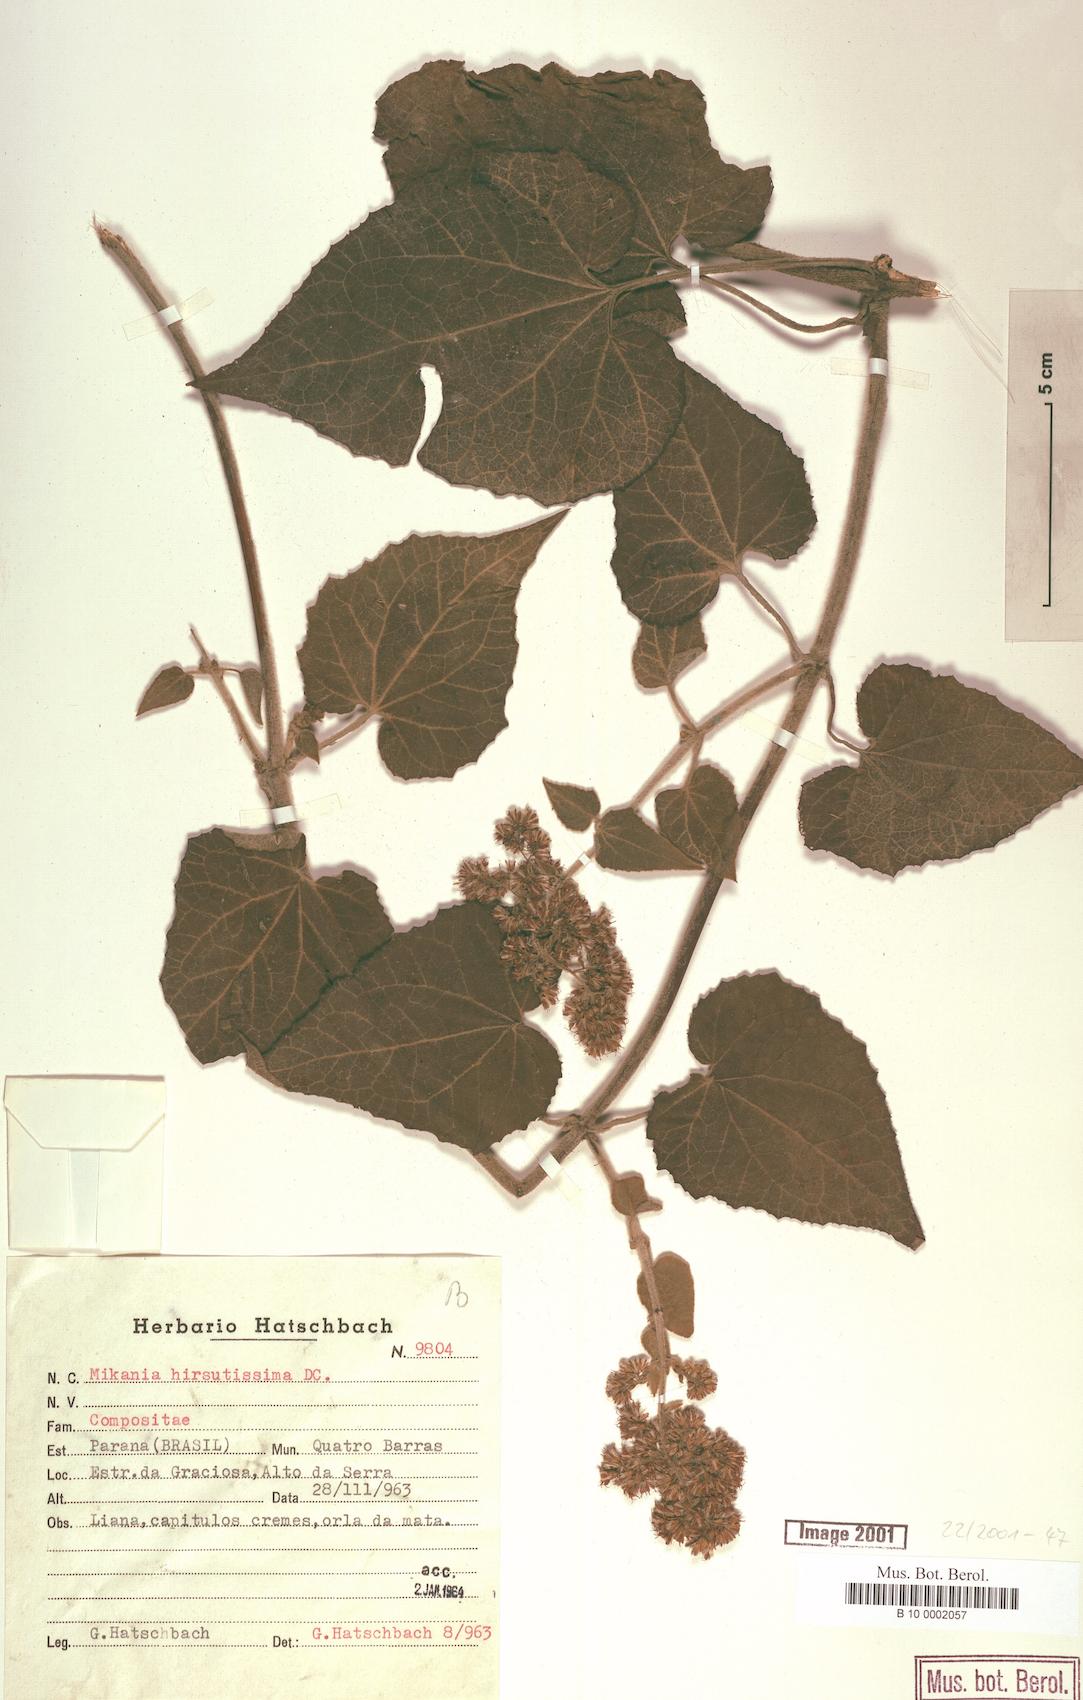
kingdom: Plantae
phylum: Tracheophyta
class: Magnoliopsida
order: Asterales
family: Asteraceae
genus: Mikania
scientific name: Mikania banisteriae
